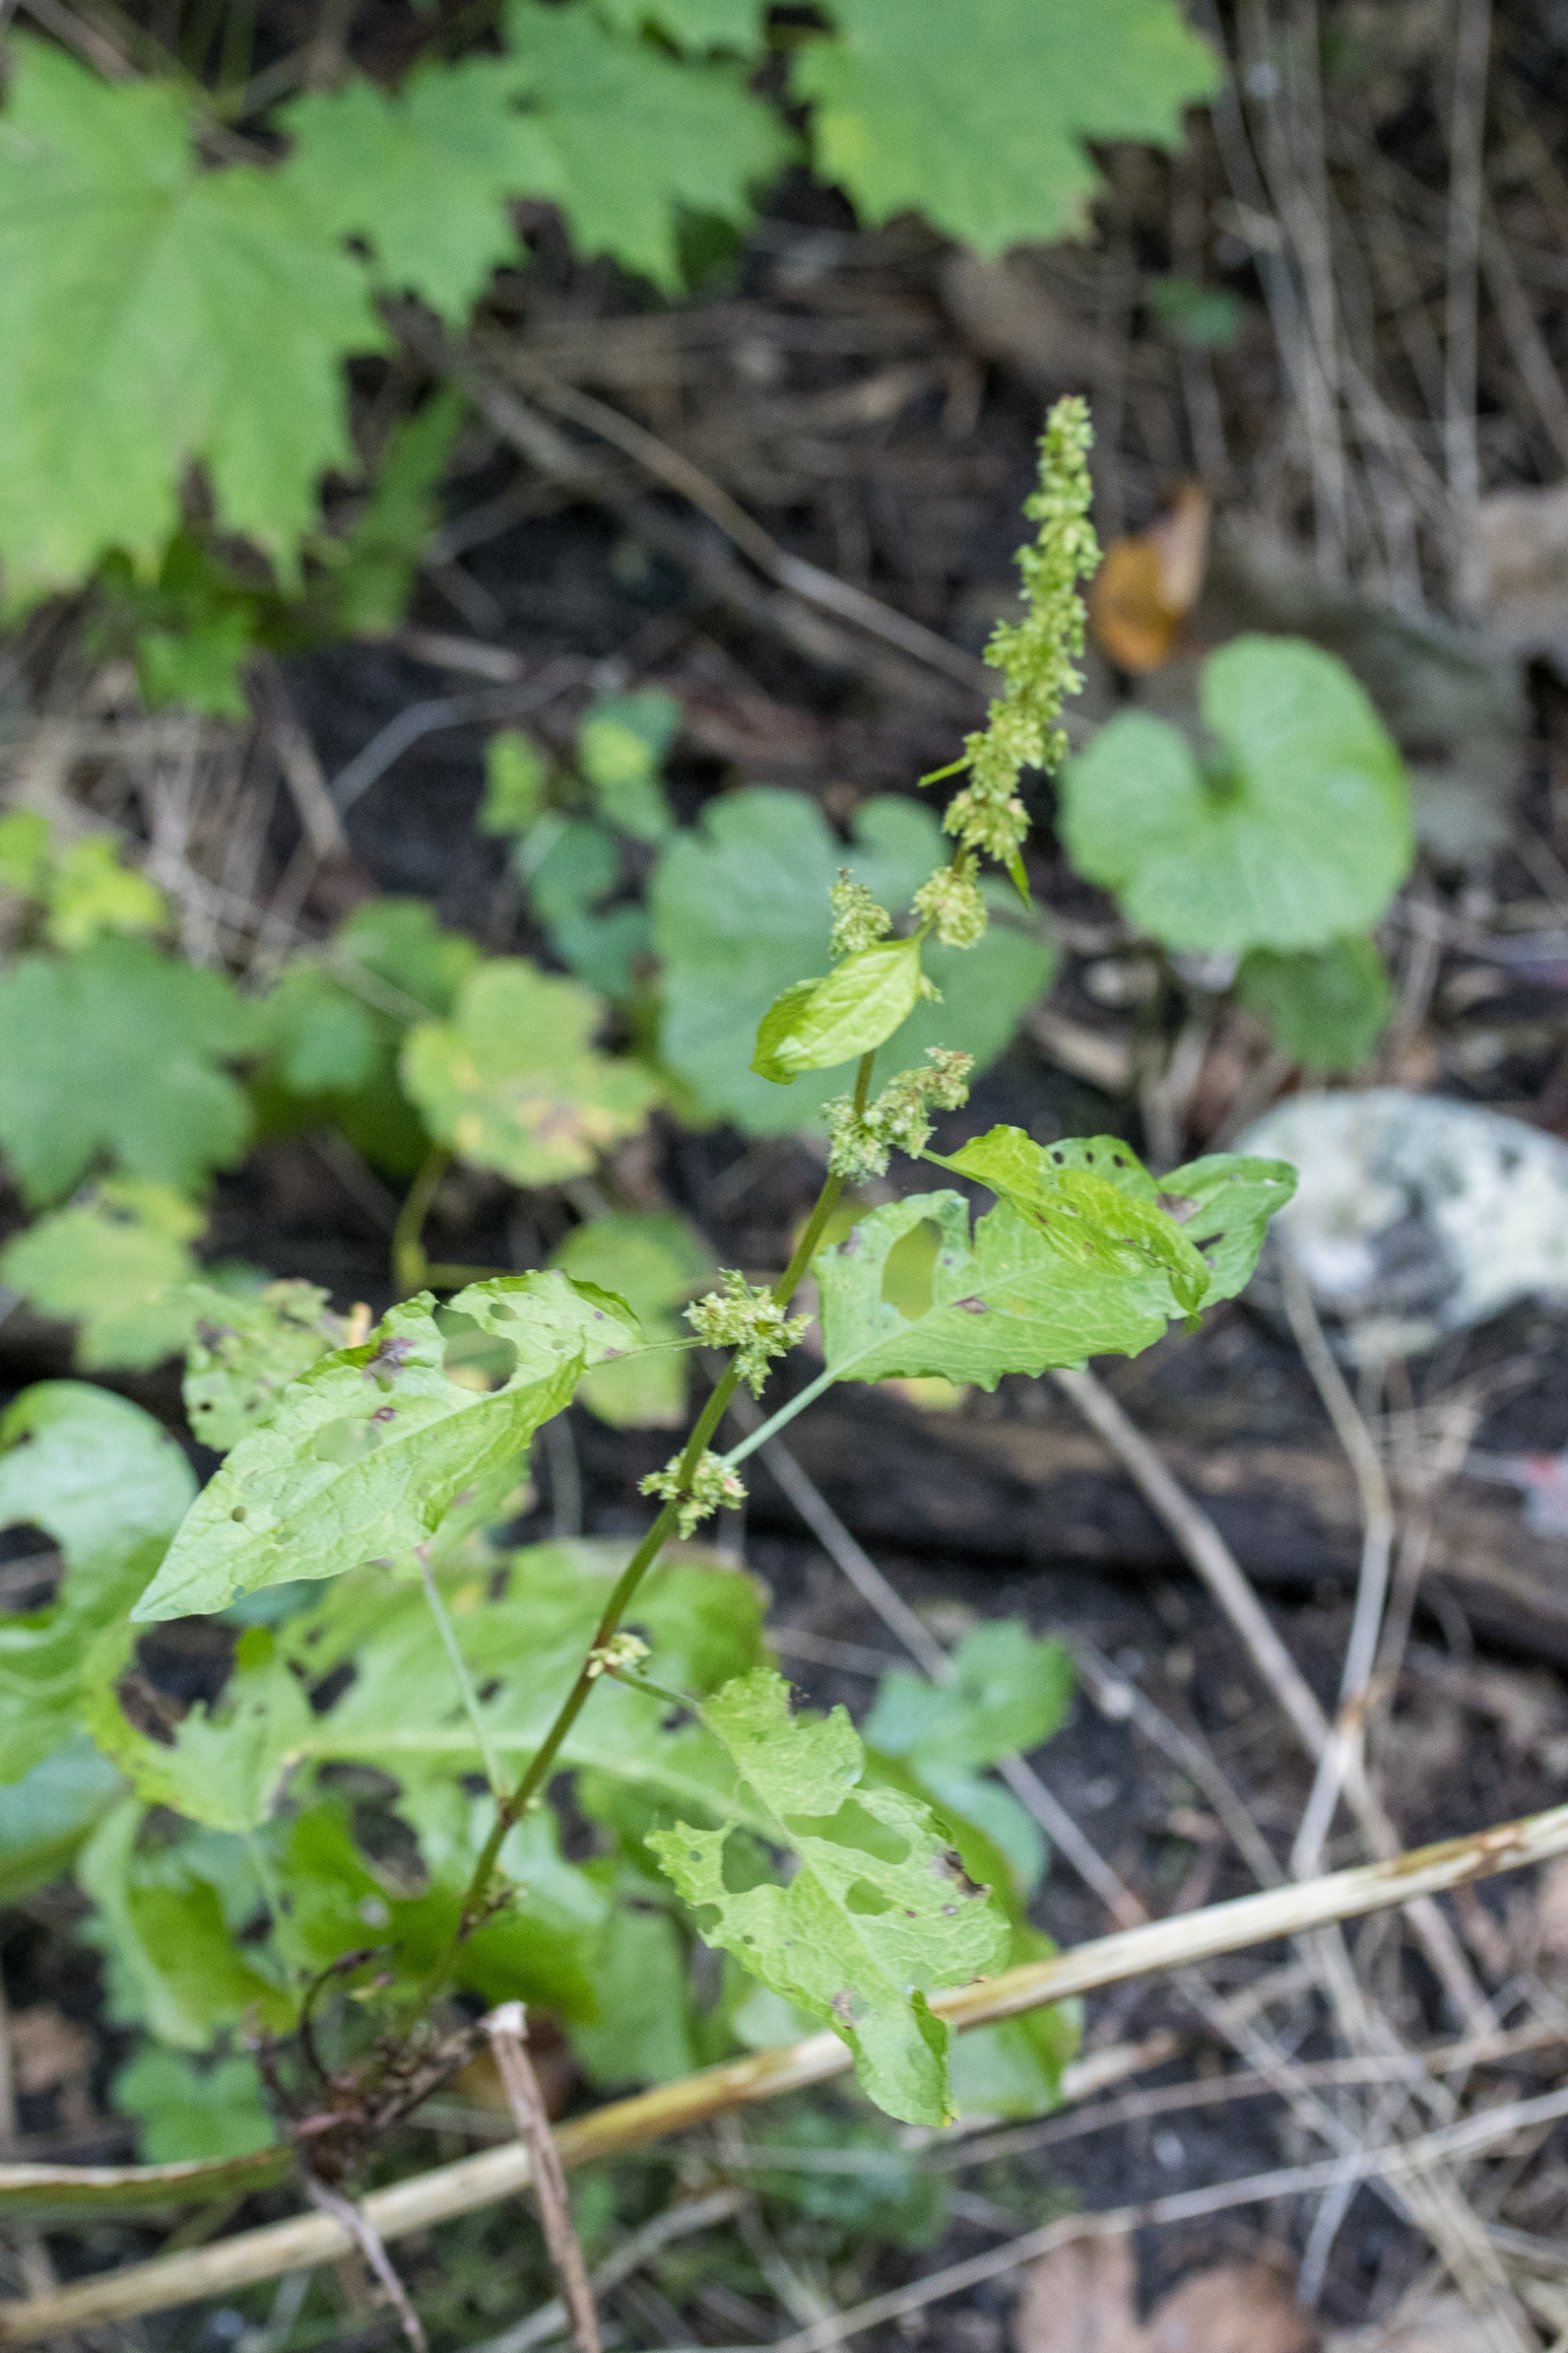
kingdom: Plantae
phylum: Tracheophyta
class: Magnoliopsida
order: Caryophyllales
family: Polygonaceae
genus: Rumex
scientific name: Rumex obtusifolius
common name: Butbladet skræppe
